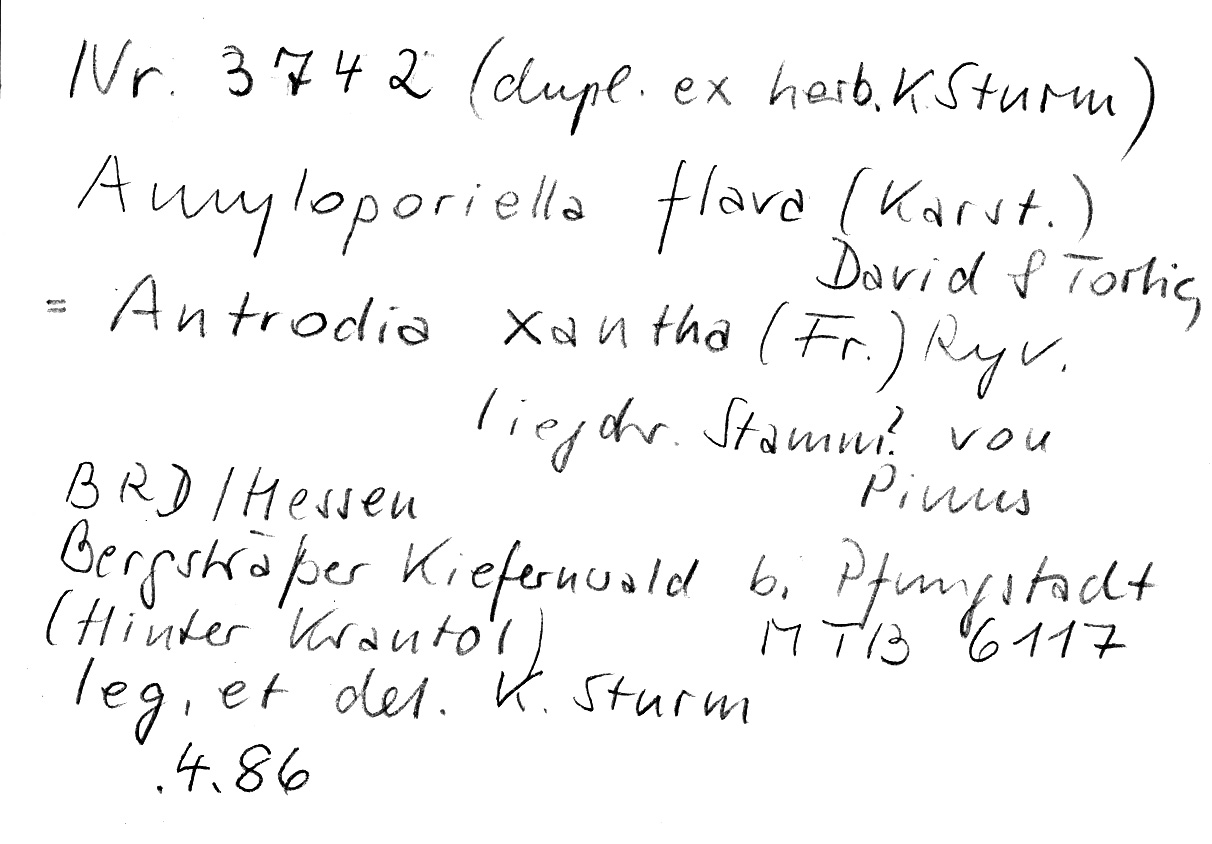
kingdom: Plantae
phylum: Tracheophyta
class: Pinopsida
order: Pinales
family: Pinaceae
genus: Pinus
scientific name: Pinus
